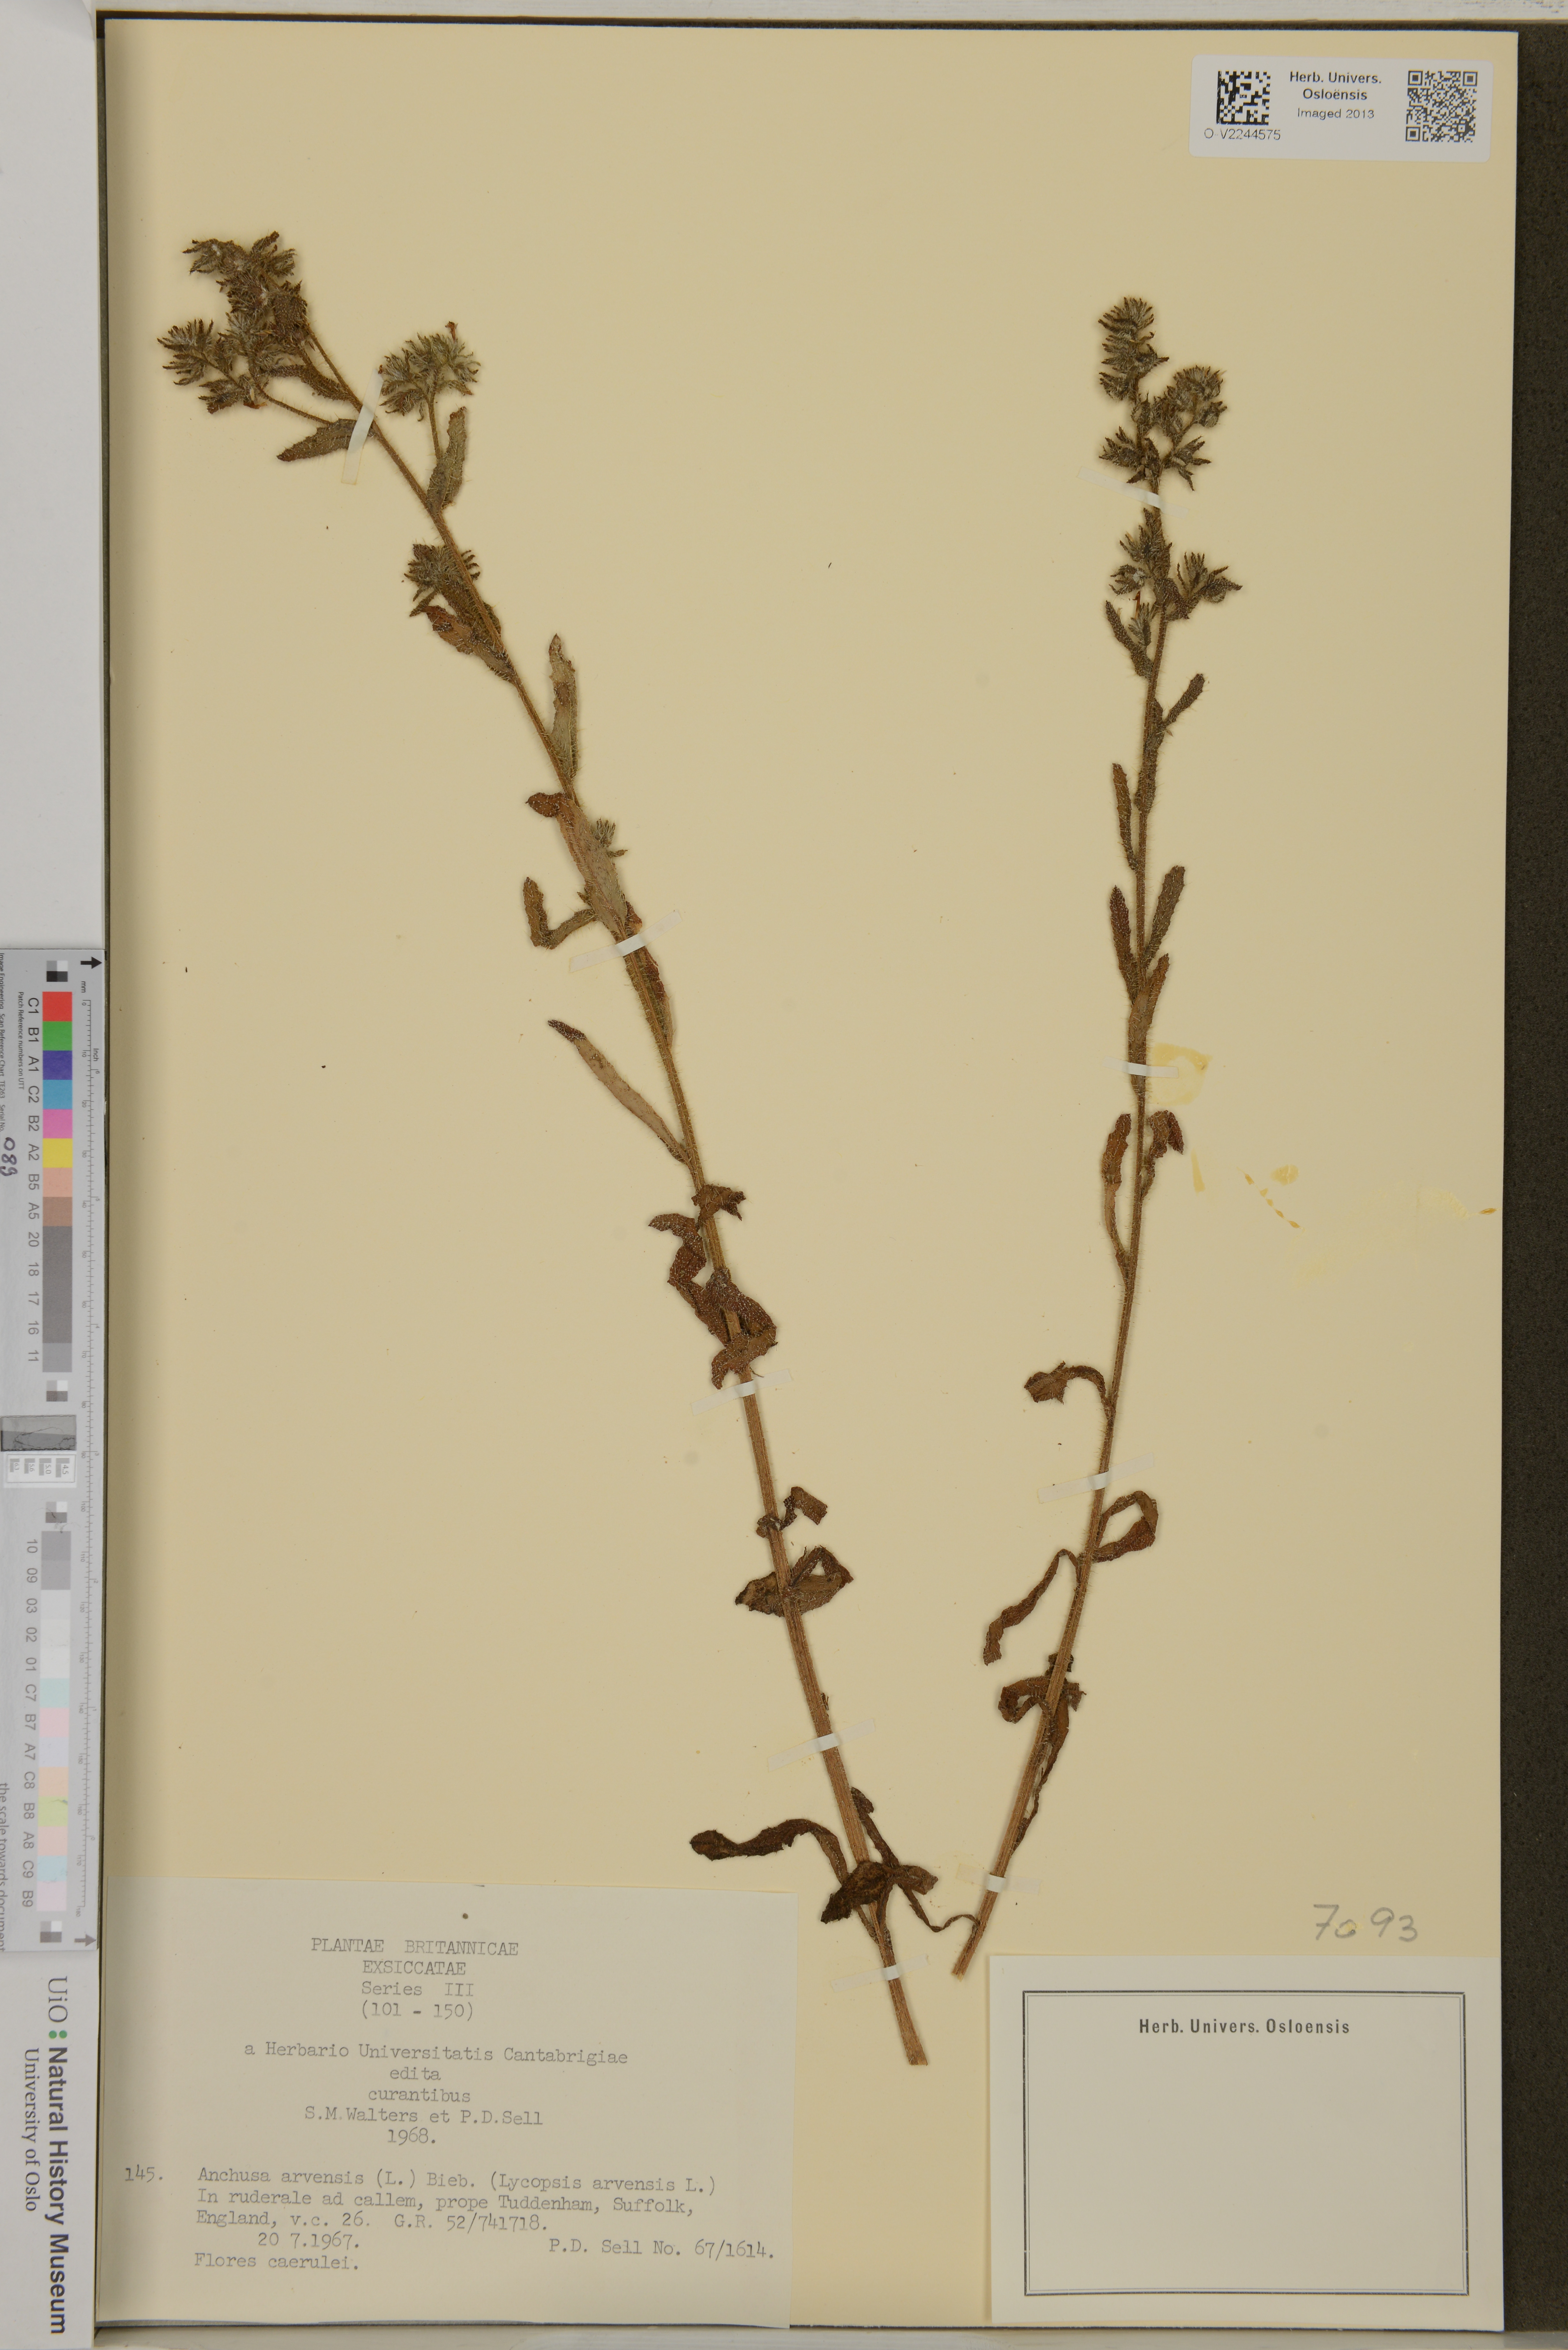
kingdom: Plantae
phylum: Tracheophyta
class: Magnoliopsida
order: Boraginales
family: Boraginaceae
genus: Lycopsis
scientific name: Lycopsis arvensis
